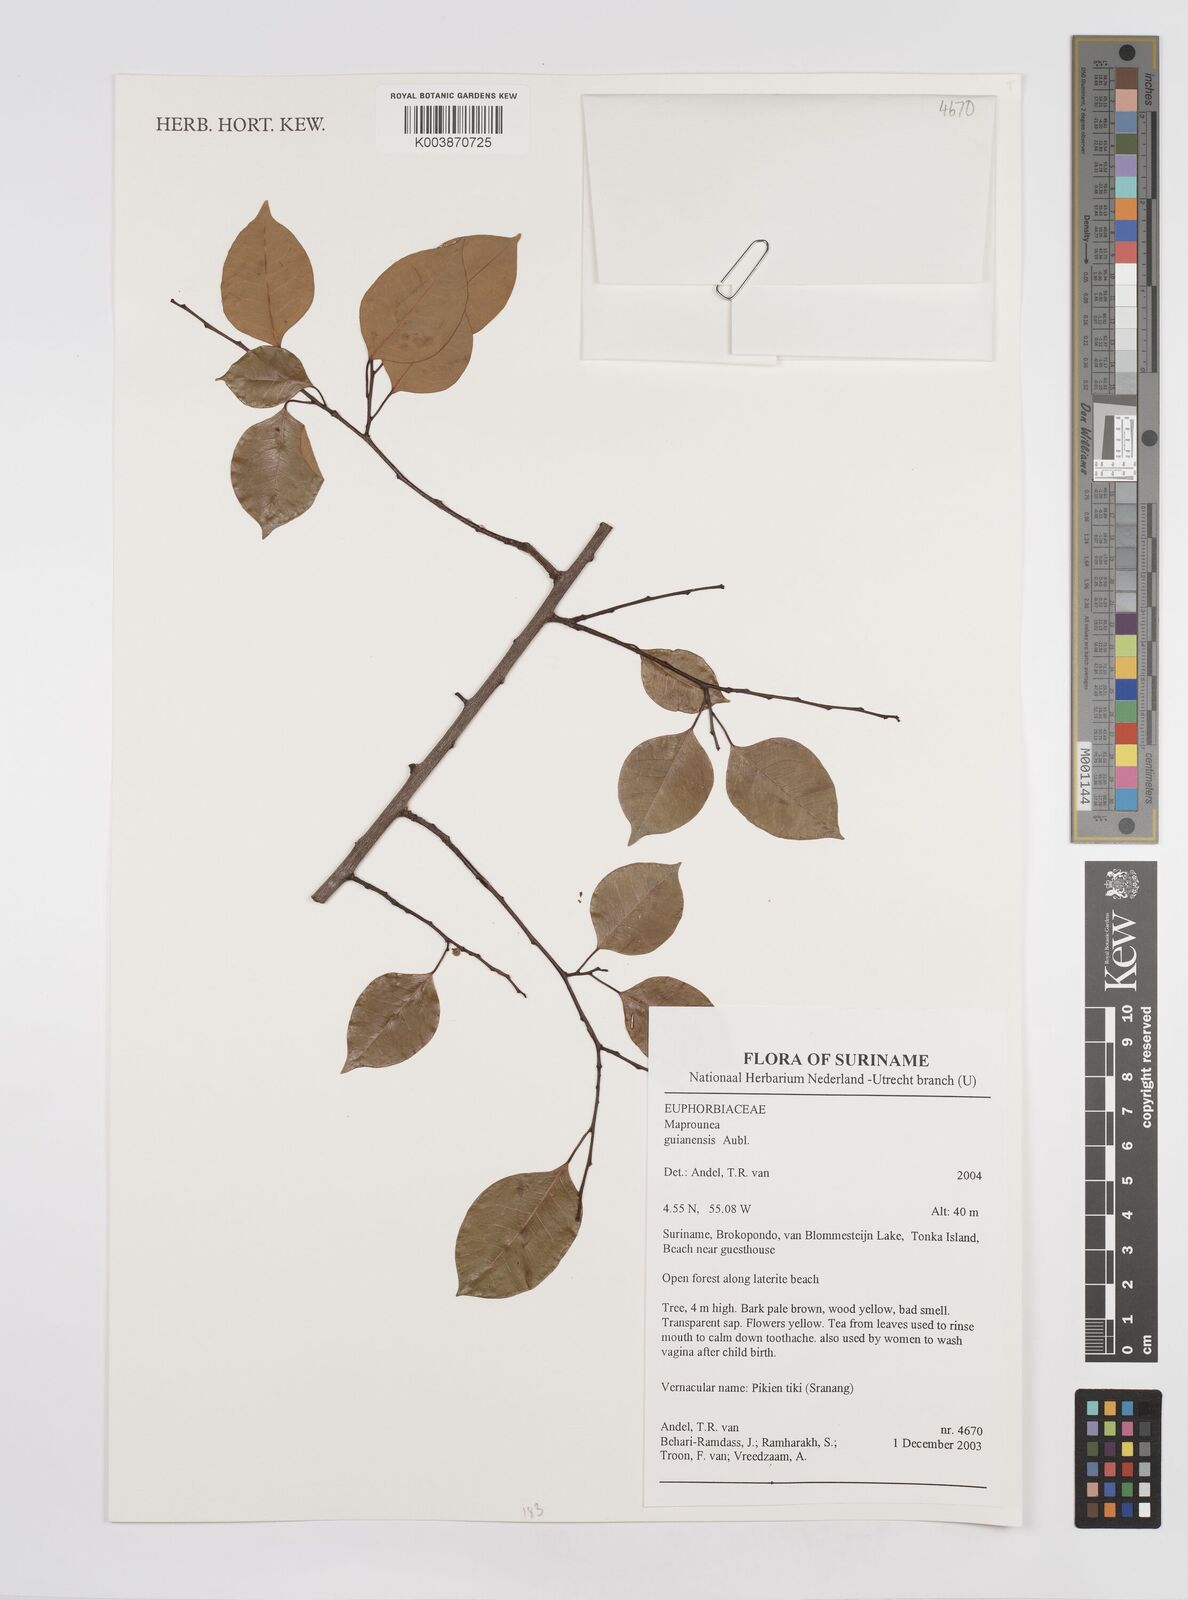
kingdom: Plantae
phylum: Tracheophyta
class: Magnoliopsida
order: Malpighiales
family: Euphorbiaceae
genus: Maprounea
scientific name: Maprounea guianensis
